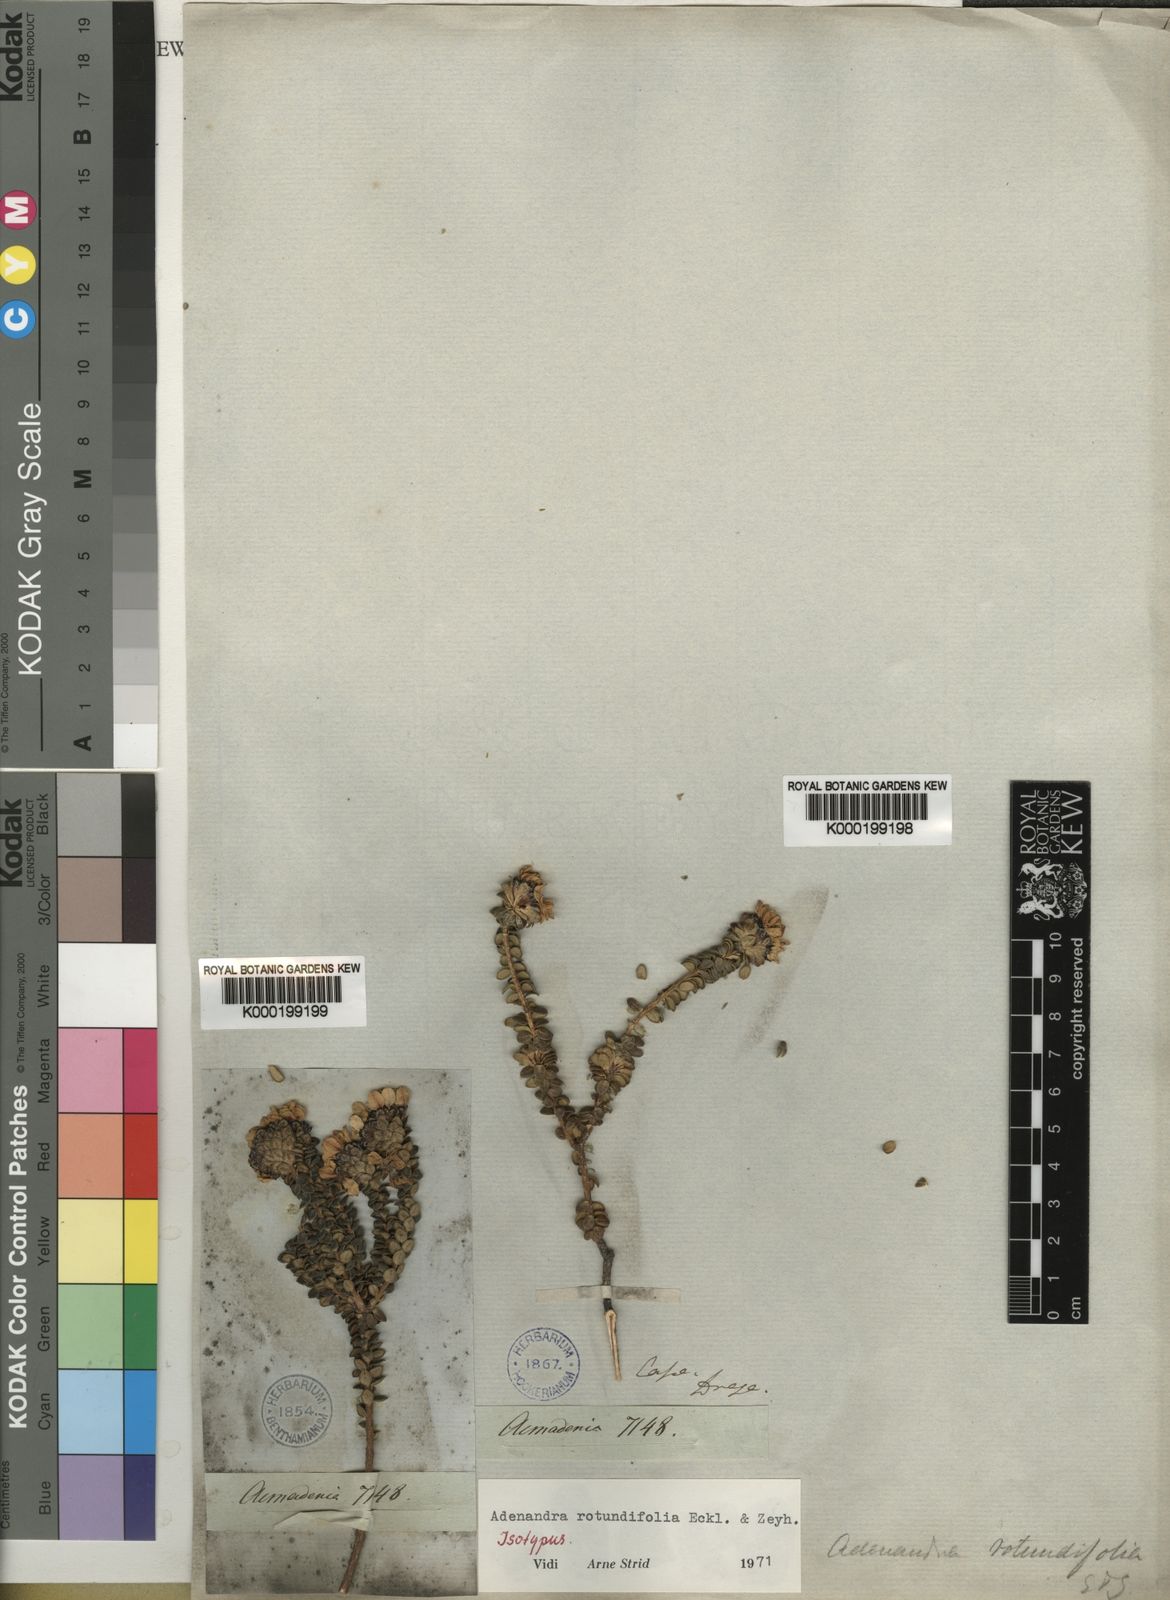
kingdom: Plantae
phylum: Tracheophyta
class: Magnoliopsida
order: Sapindales
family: Rutaceae
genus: Adenandra
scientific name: Adenandra rotundifolia
